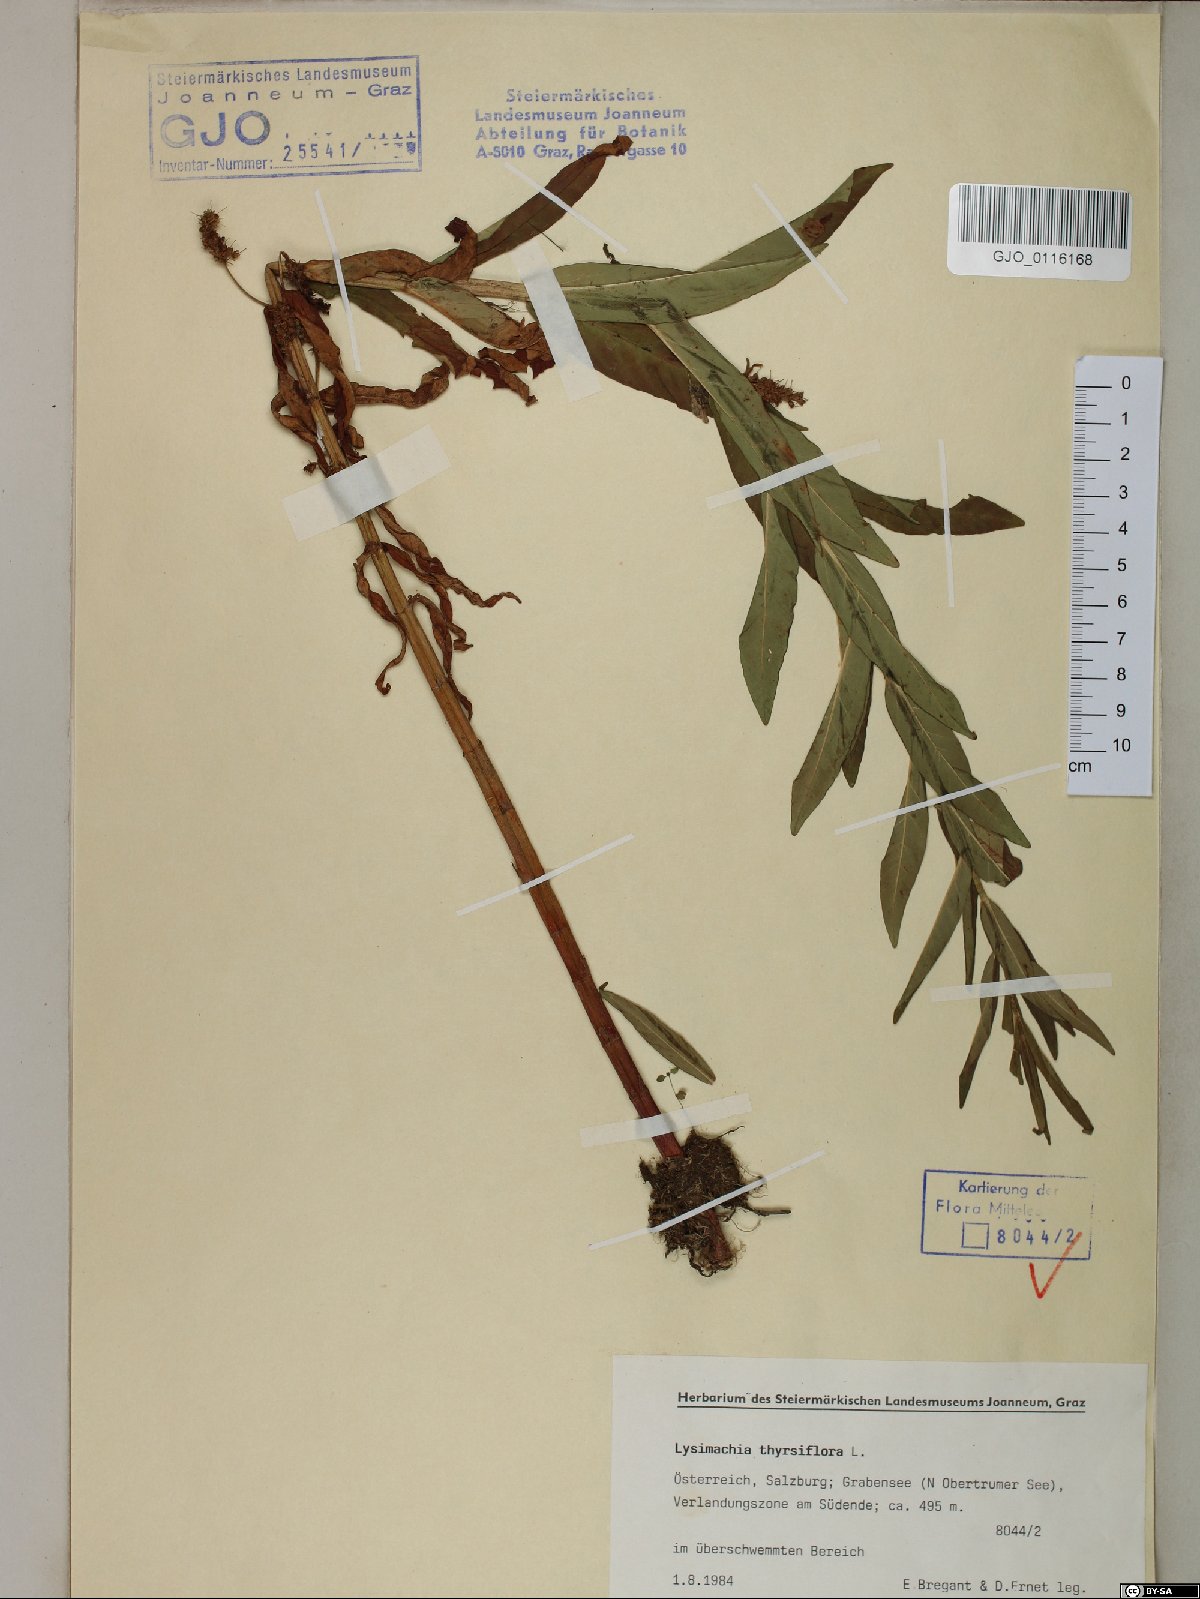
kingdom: Plantae
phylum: Tracheophyta
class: Magnoliopsida
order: Ericales
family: Primulaceae
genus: Lysimachia
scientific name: Lysimachia thyrsiflora
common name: Tufted loosestrife
